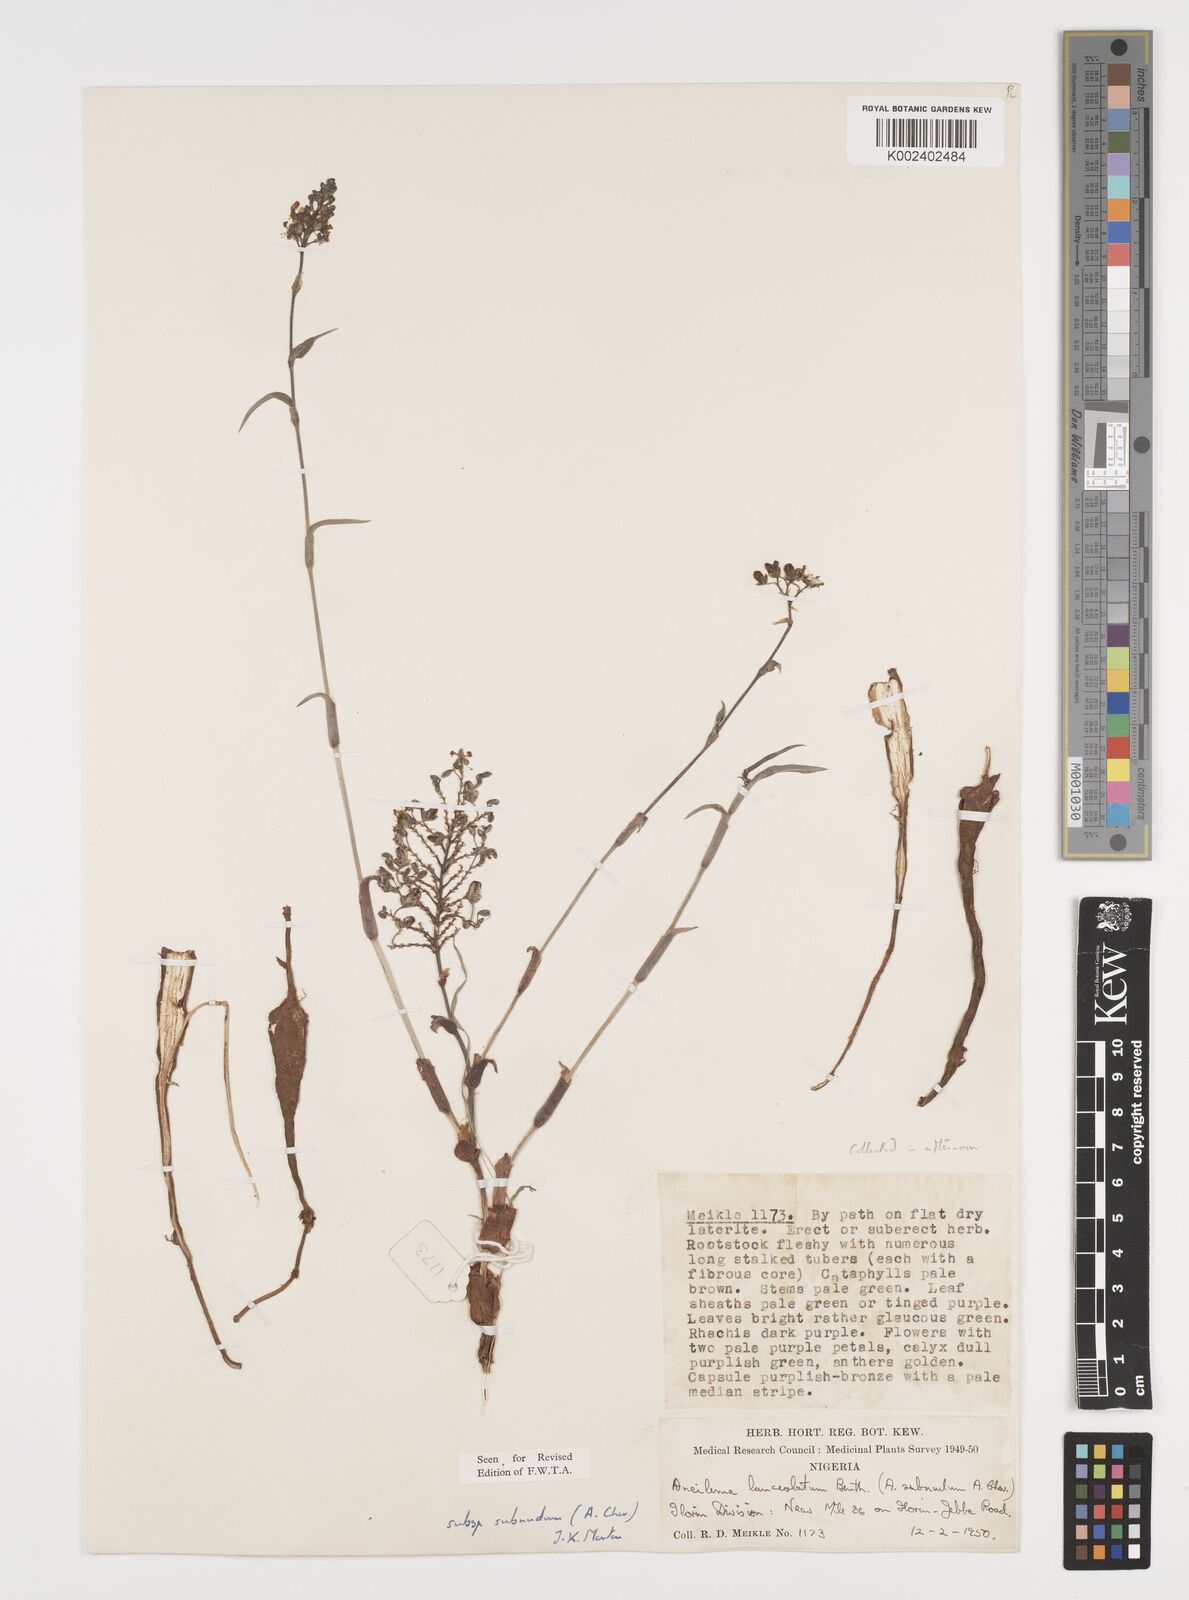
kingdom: Plantae
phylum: Tracheophyta
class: Liliopsida
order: Commelinales
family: Commelinaceae
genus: Aneilema
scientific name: Aneilema lanceolatum
